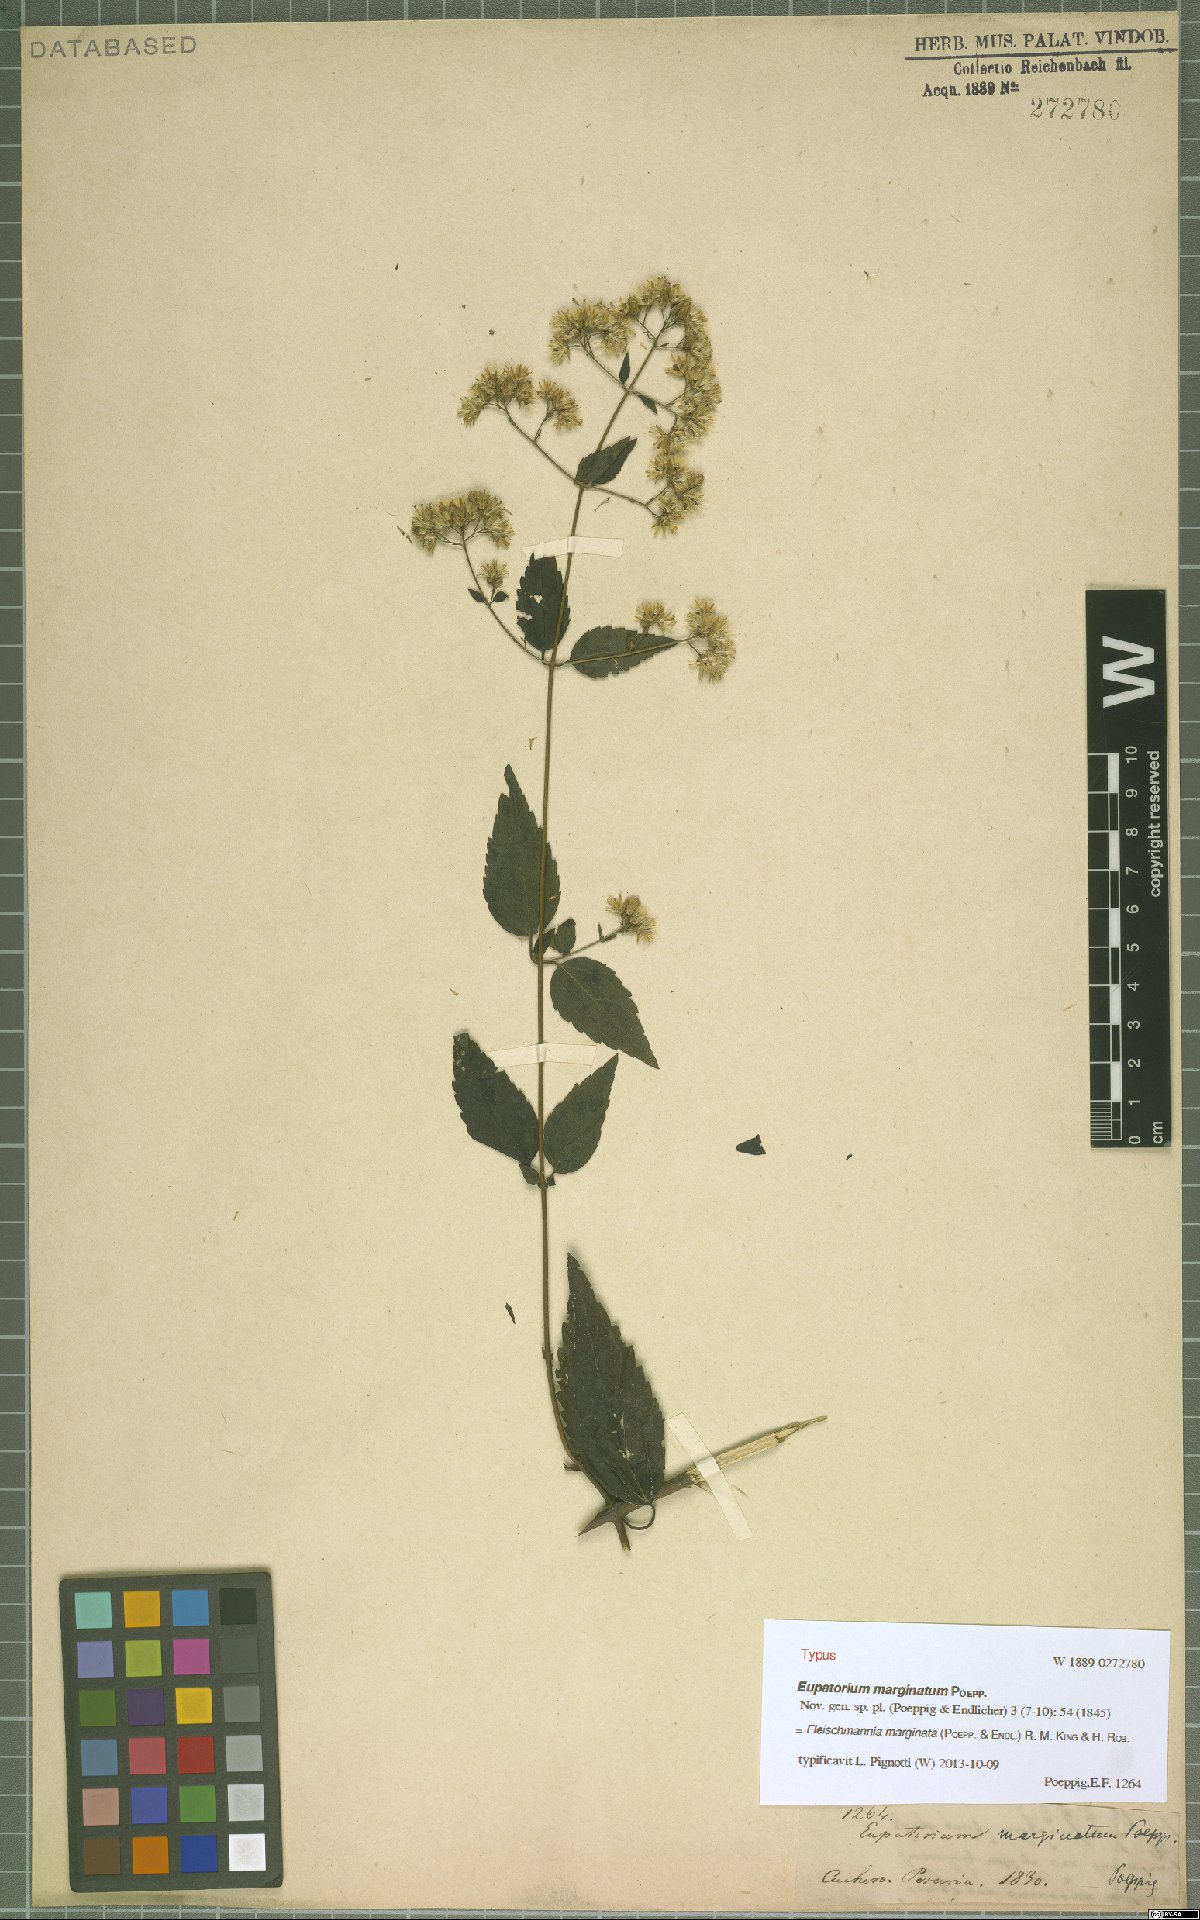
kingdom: Plantae
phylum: Tracheophyta
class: Magnoliopsida
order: Asterales
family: Asteraceae
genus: Fleischmannia
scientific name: Fleischmannia marginata
